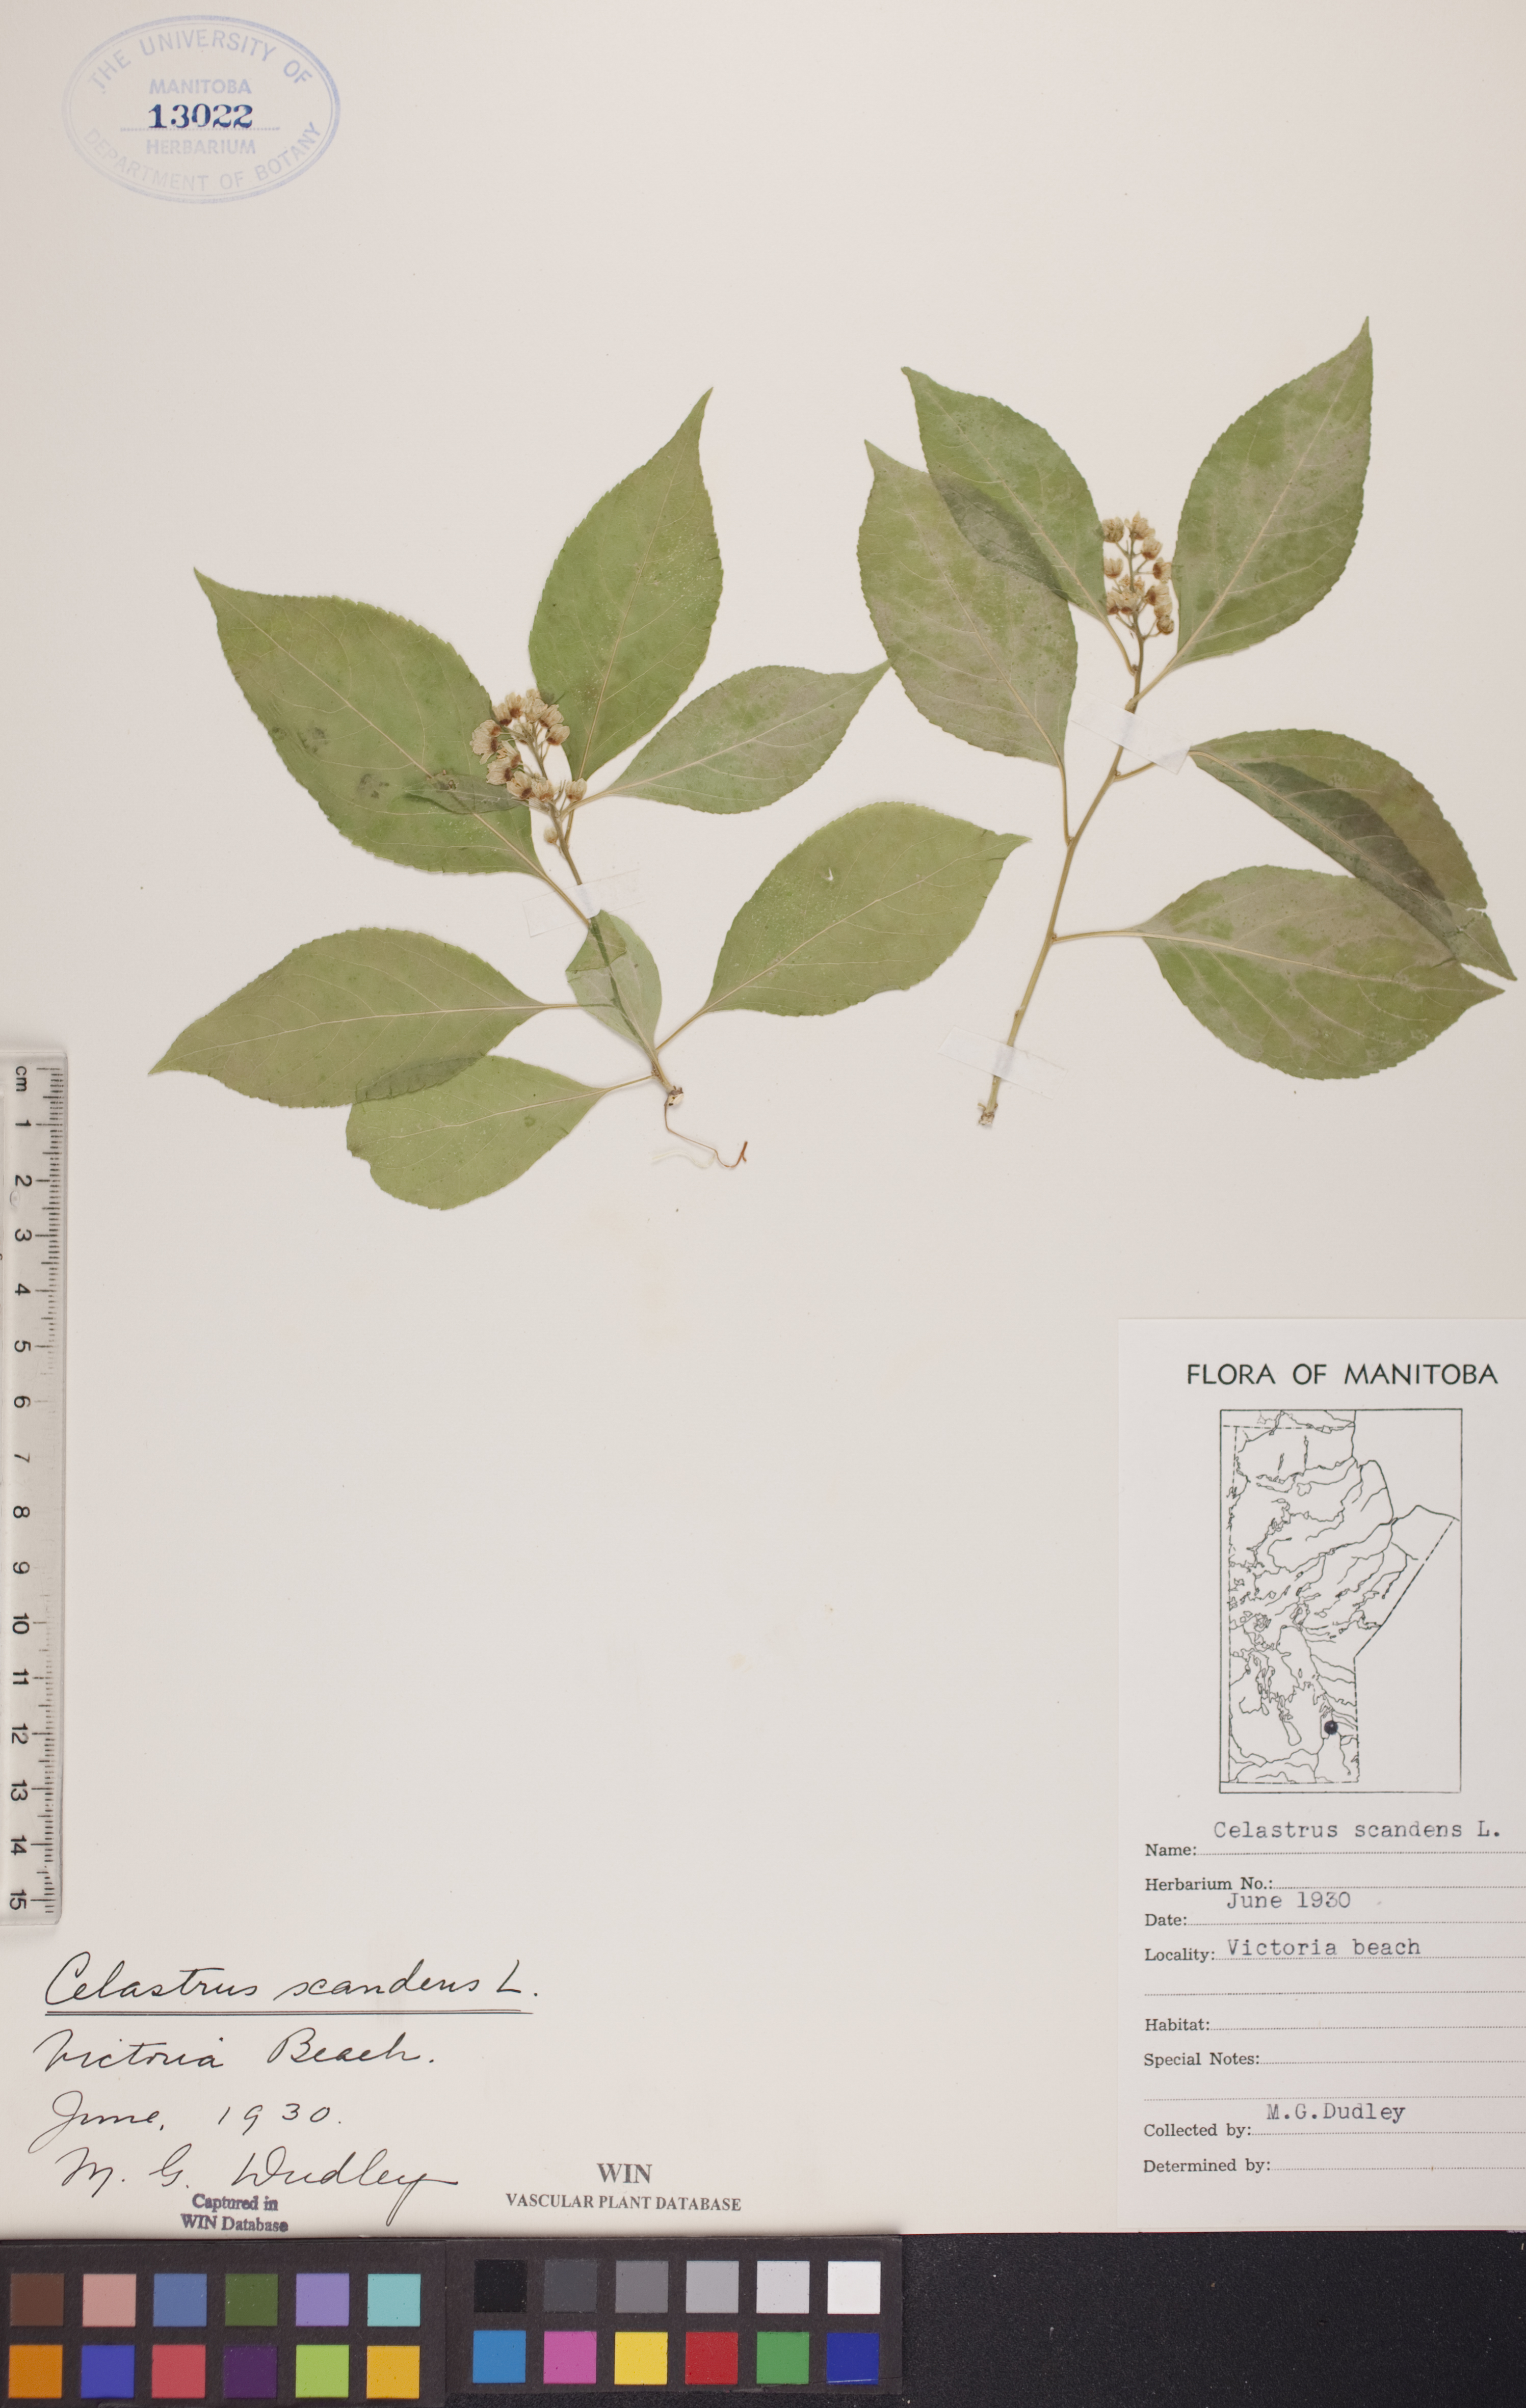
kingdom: Plantae
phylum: Tracheophyta
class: Magnoliopsida
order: Celastrales
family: Celastraceae
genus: Celastrus
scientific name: Celastrus scandens
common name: American bittersweet
